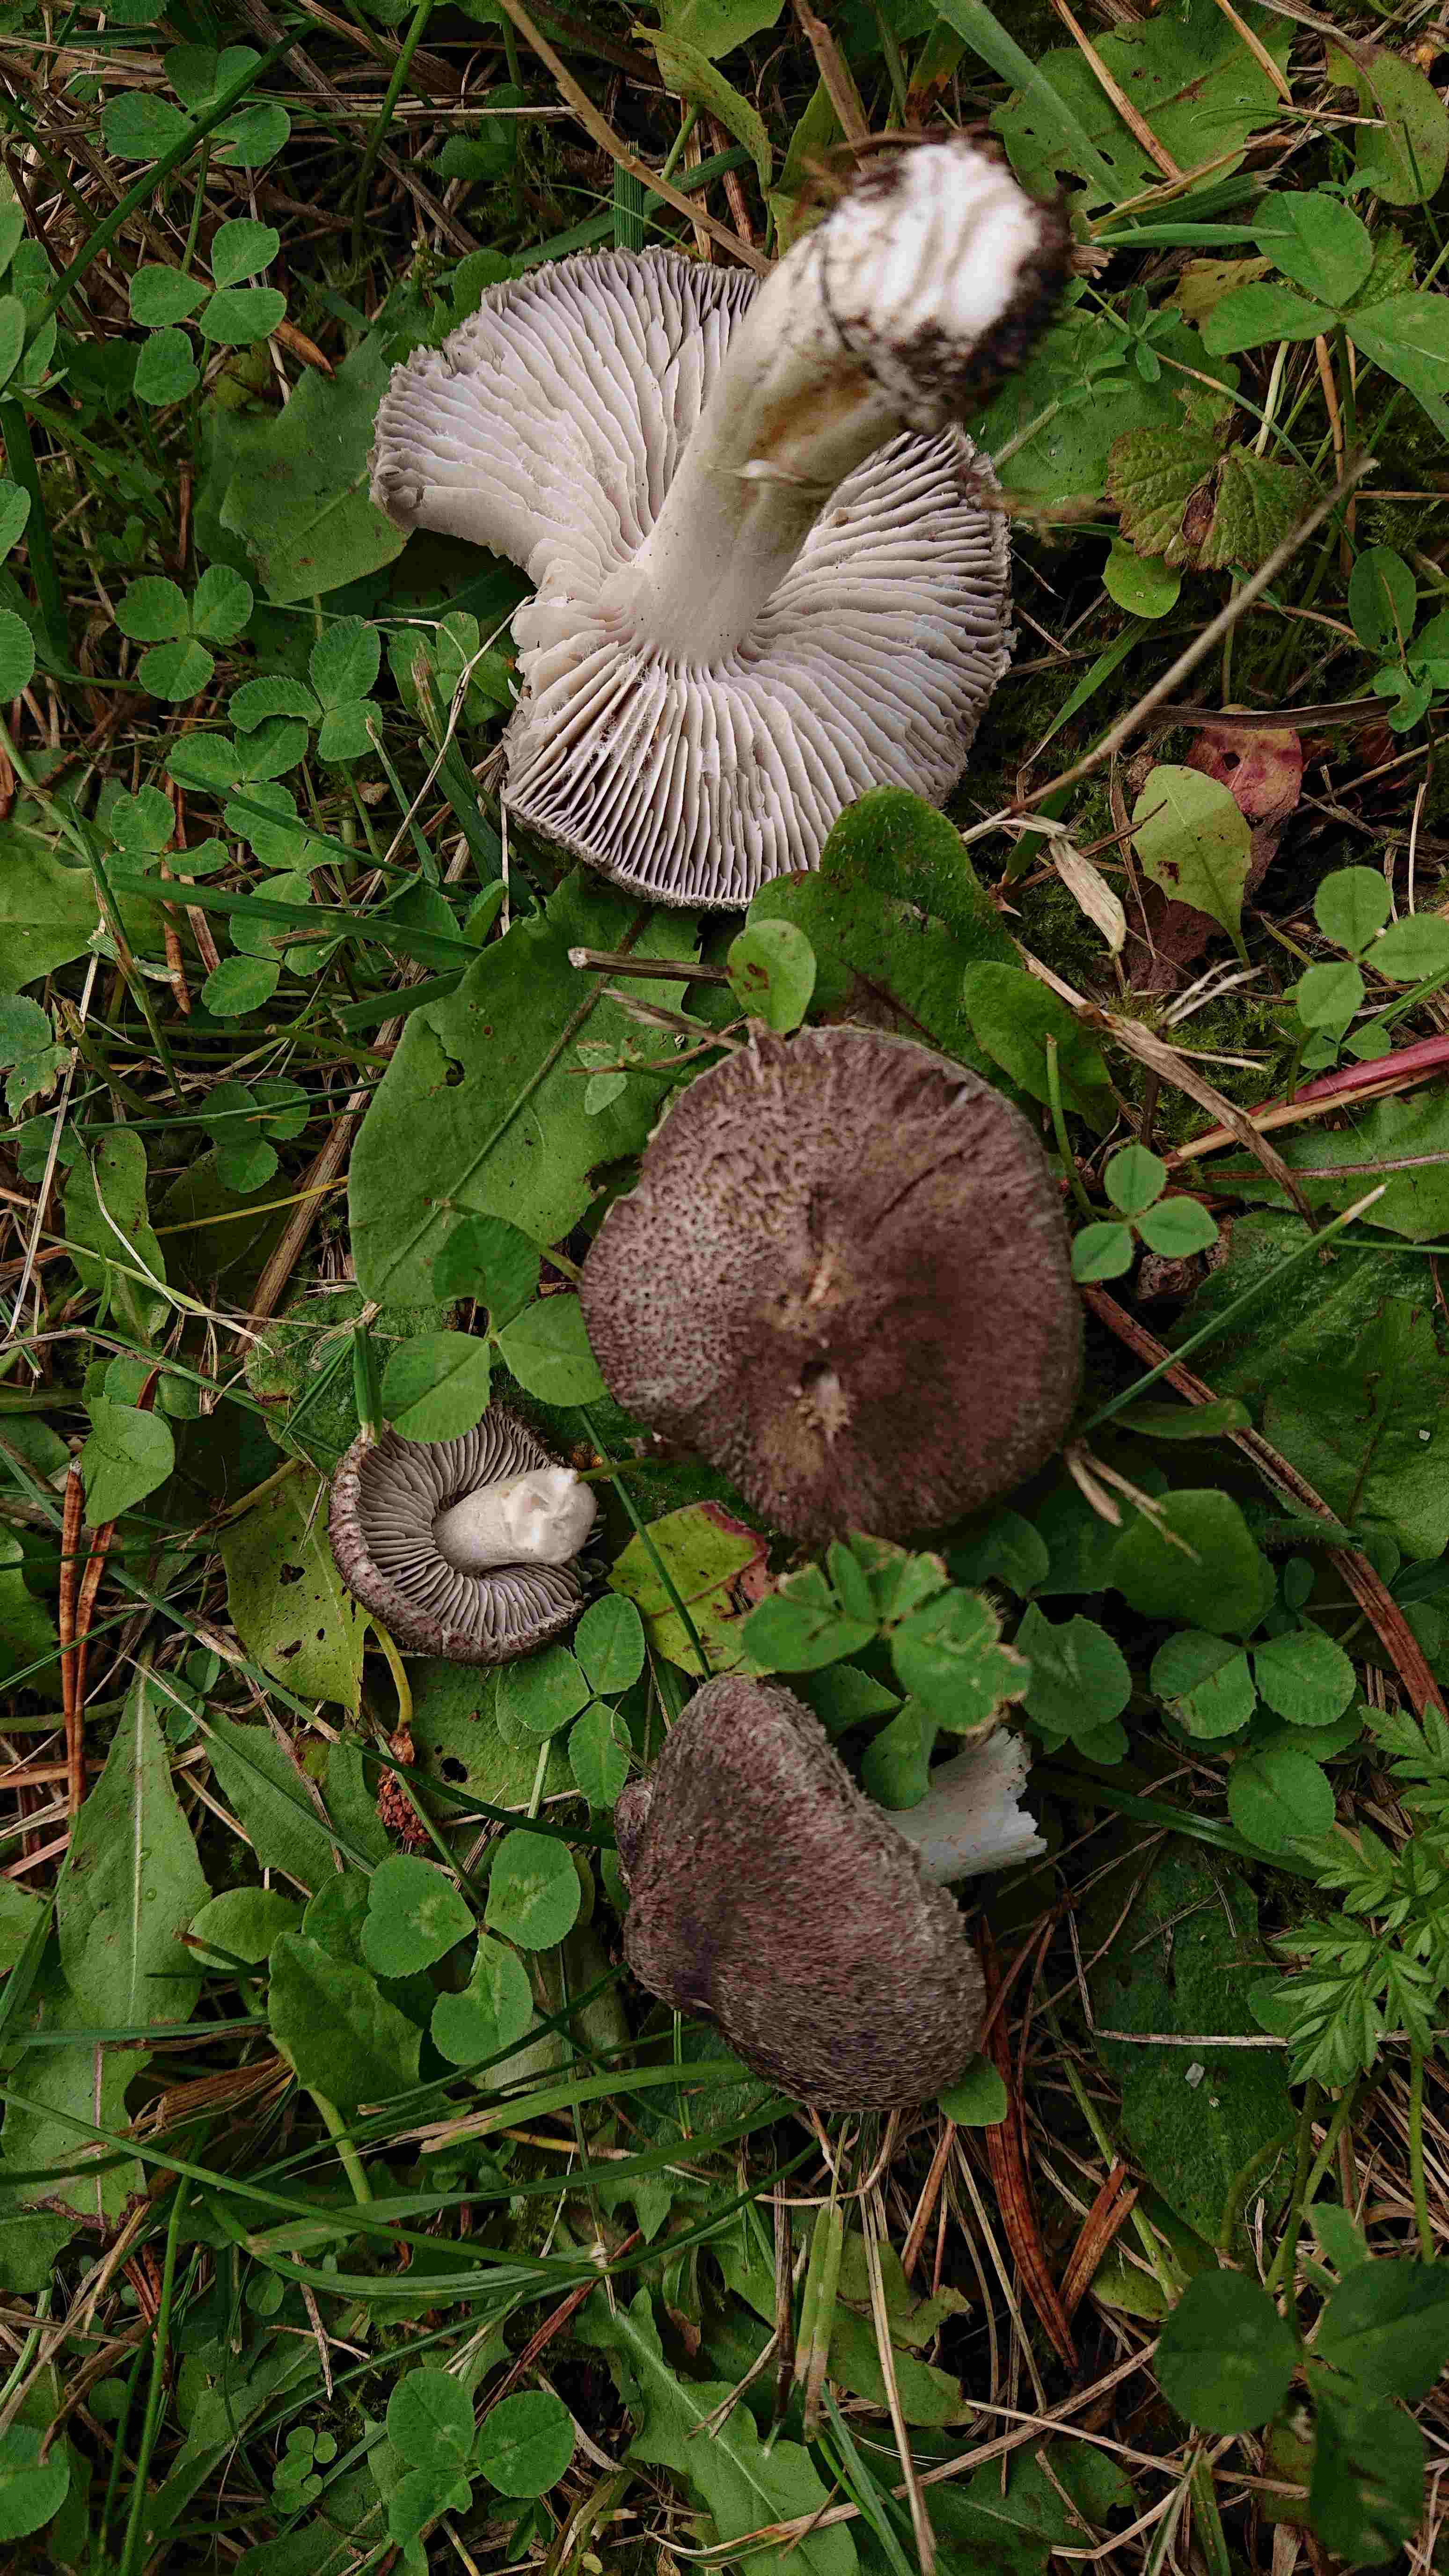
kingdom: Fungi
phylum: Basidiomycota
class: Agaricomycetes
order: Agaricales
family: Tricholomataceae
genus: Tricholoma
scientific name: Tricholoma terreum
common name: jordfarvet ridderhat
